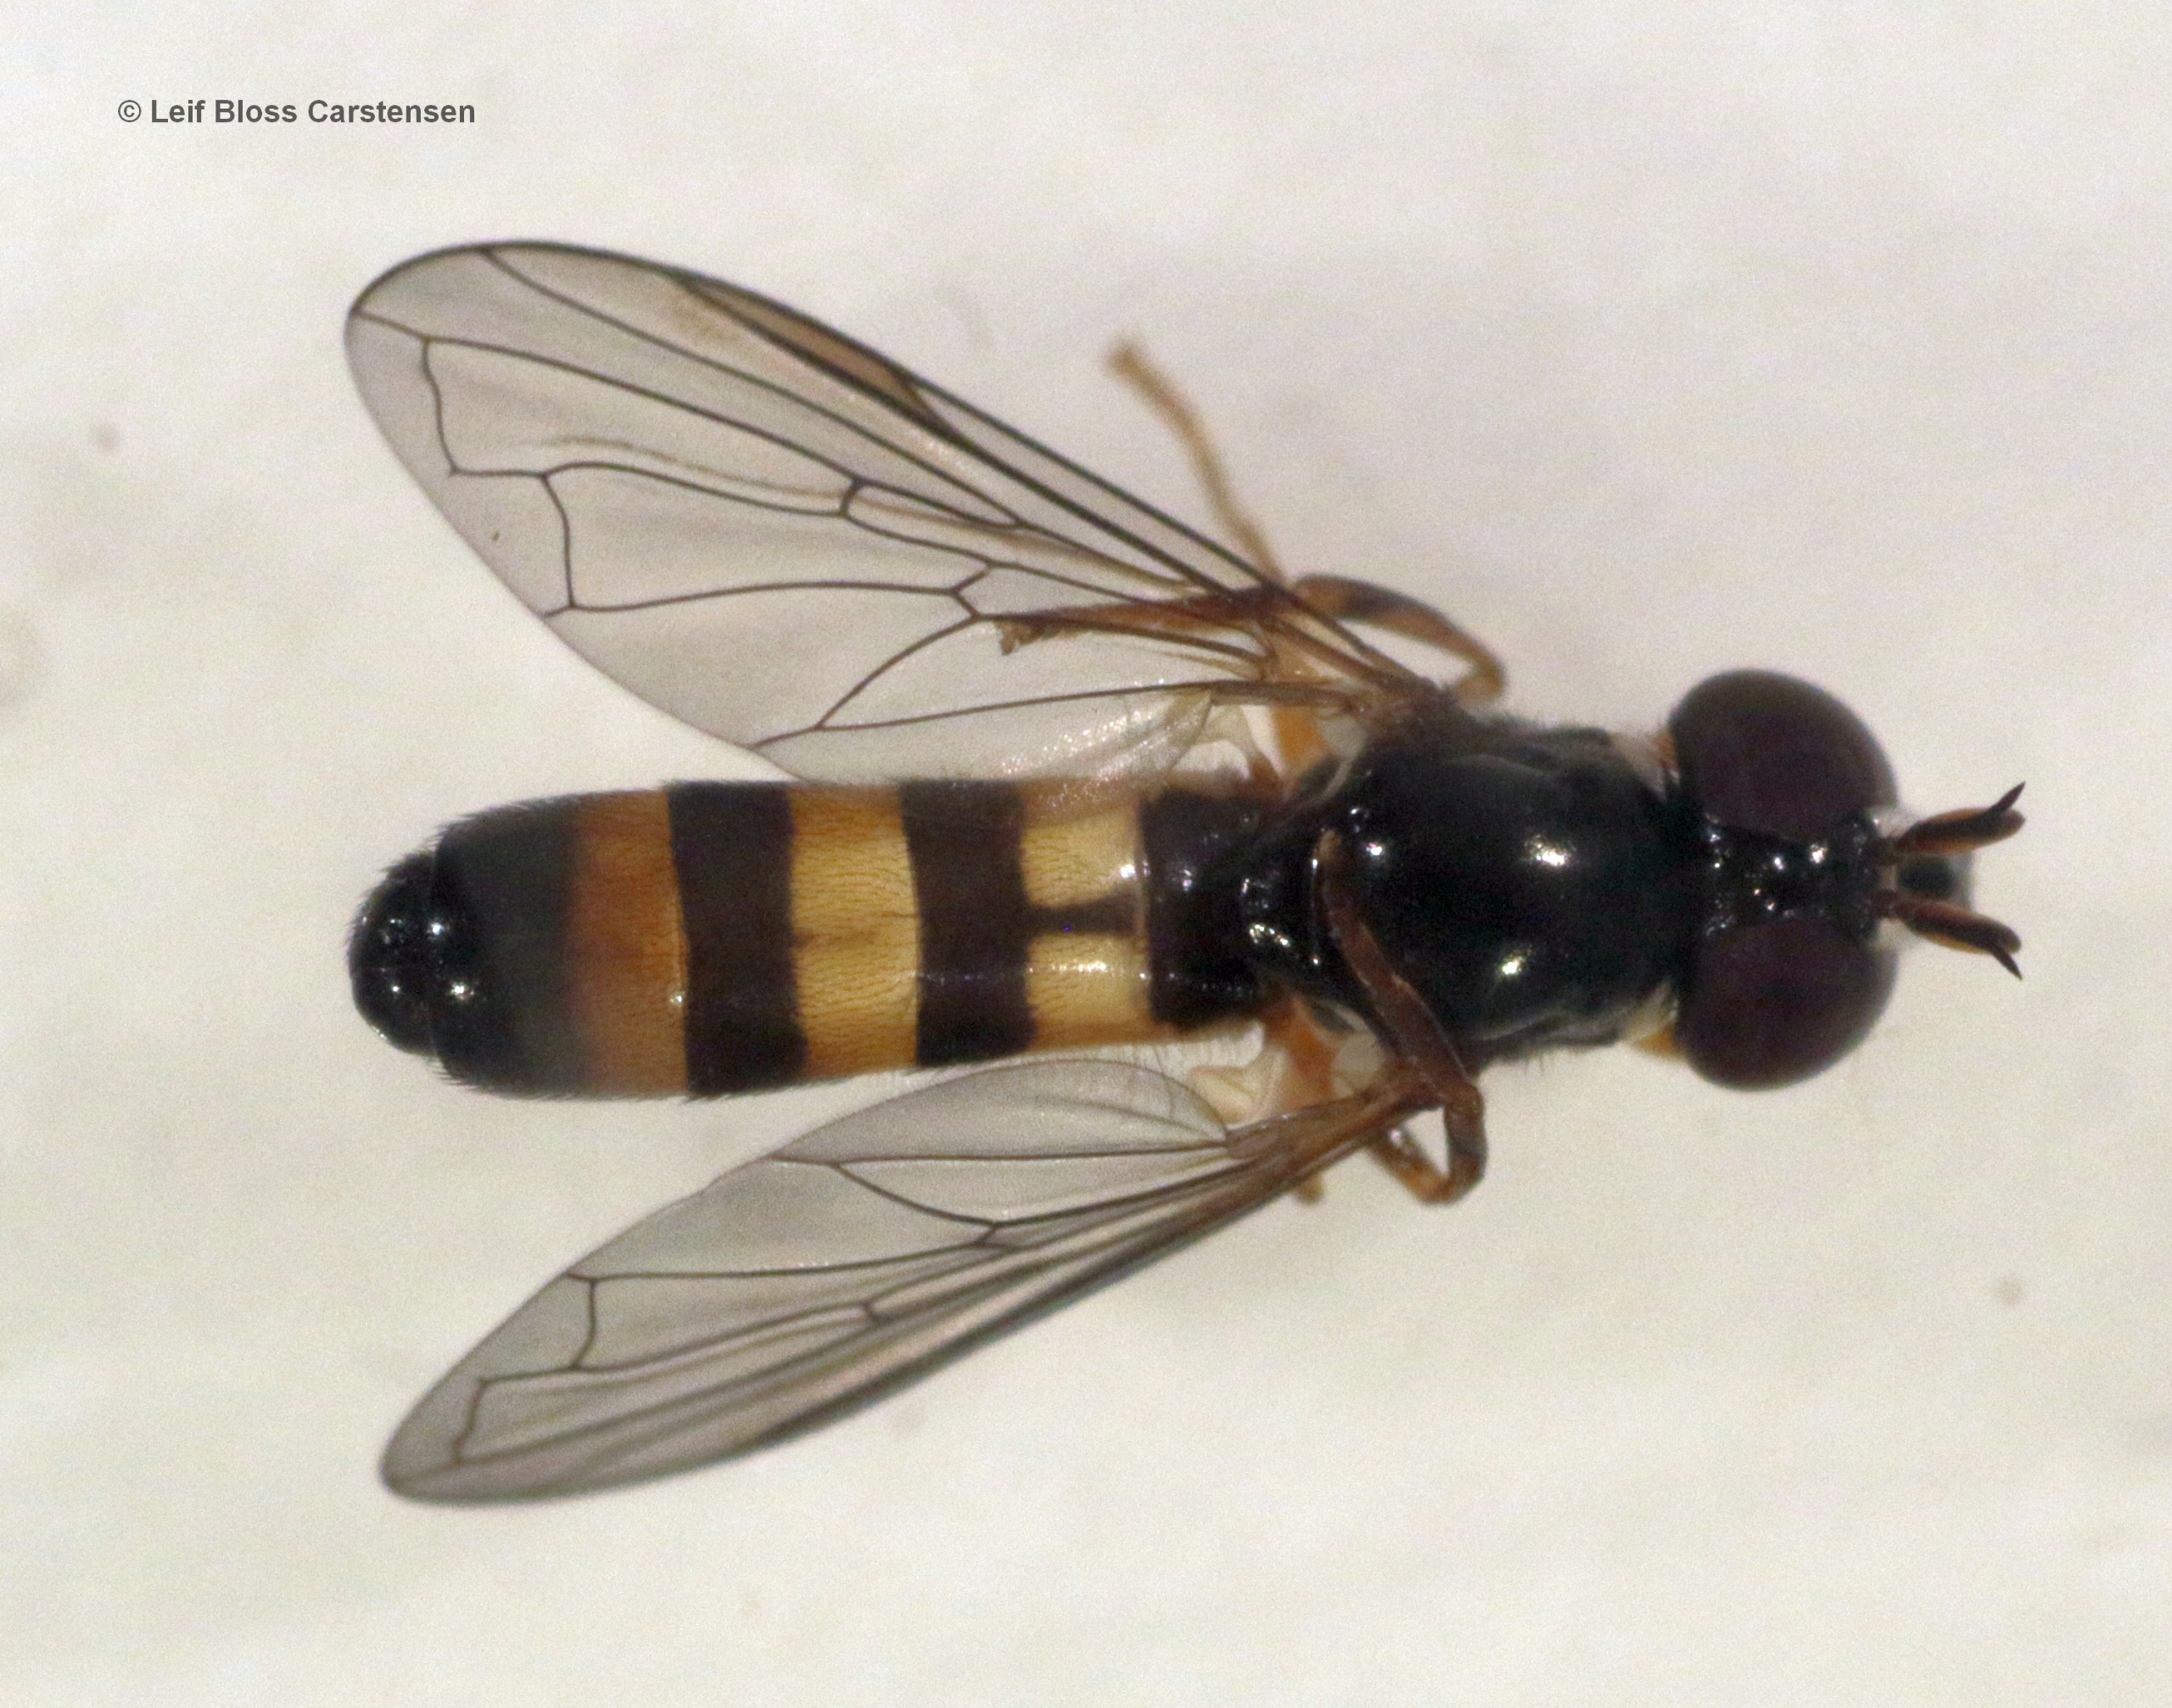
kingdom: Animalia
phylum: Arthropoda
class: Insecta
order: Diptera
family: Syrphidae
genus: Chamaesyrphus
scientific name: Chamaesyrphus lugubris
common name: Dværg-svirreflue
